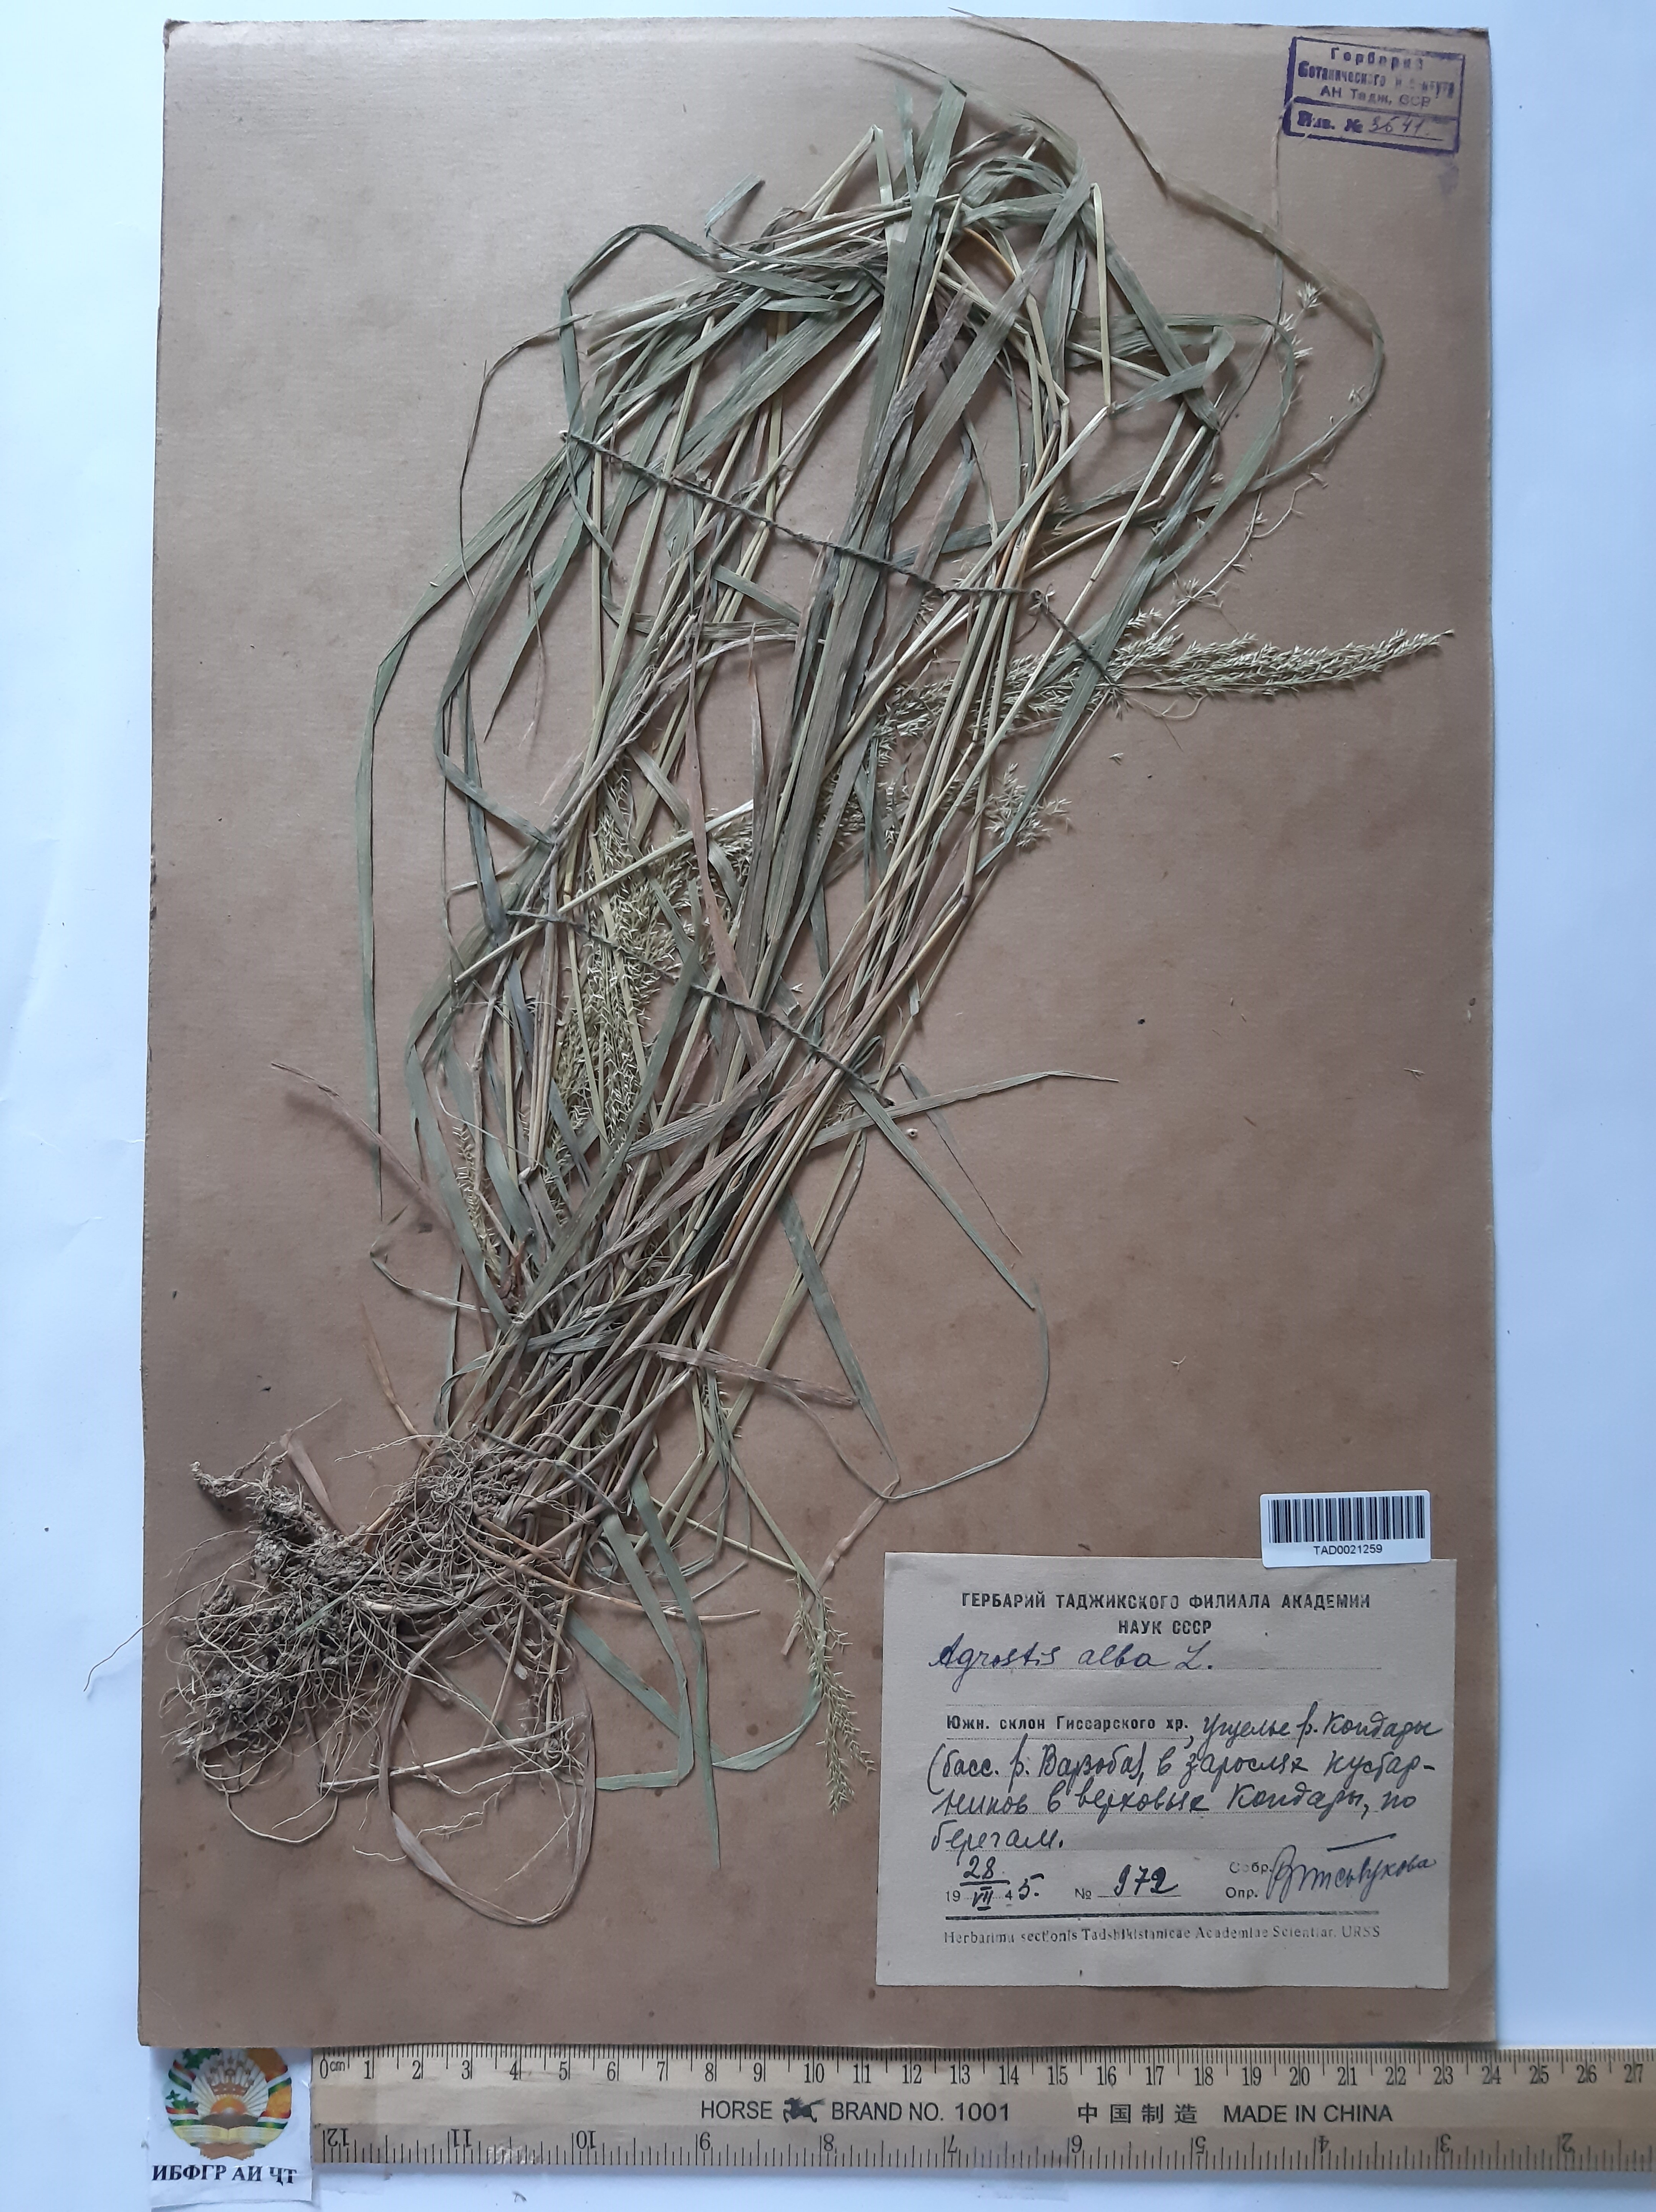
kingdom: Plantae
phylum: Tracheophyta
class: Liliopsida
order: Poales
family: Poaceae
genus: Agrostis
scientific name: Agrostis canina
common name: Velvet bent
